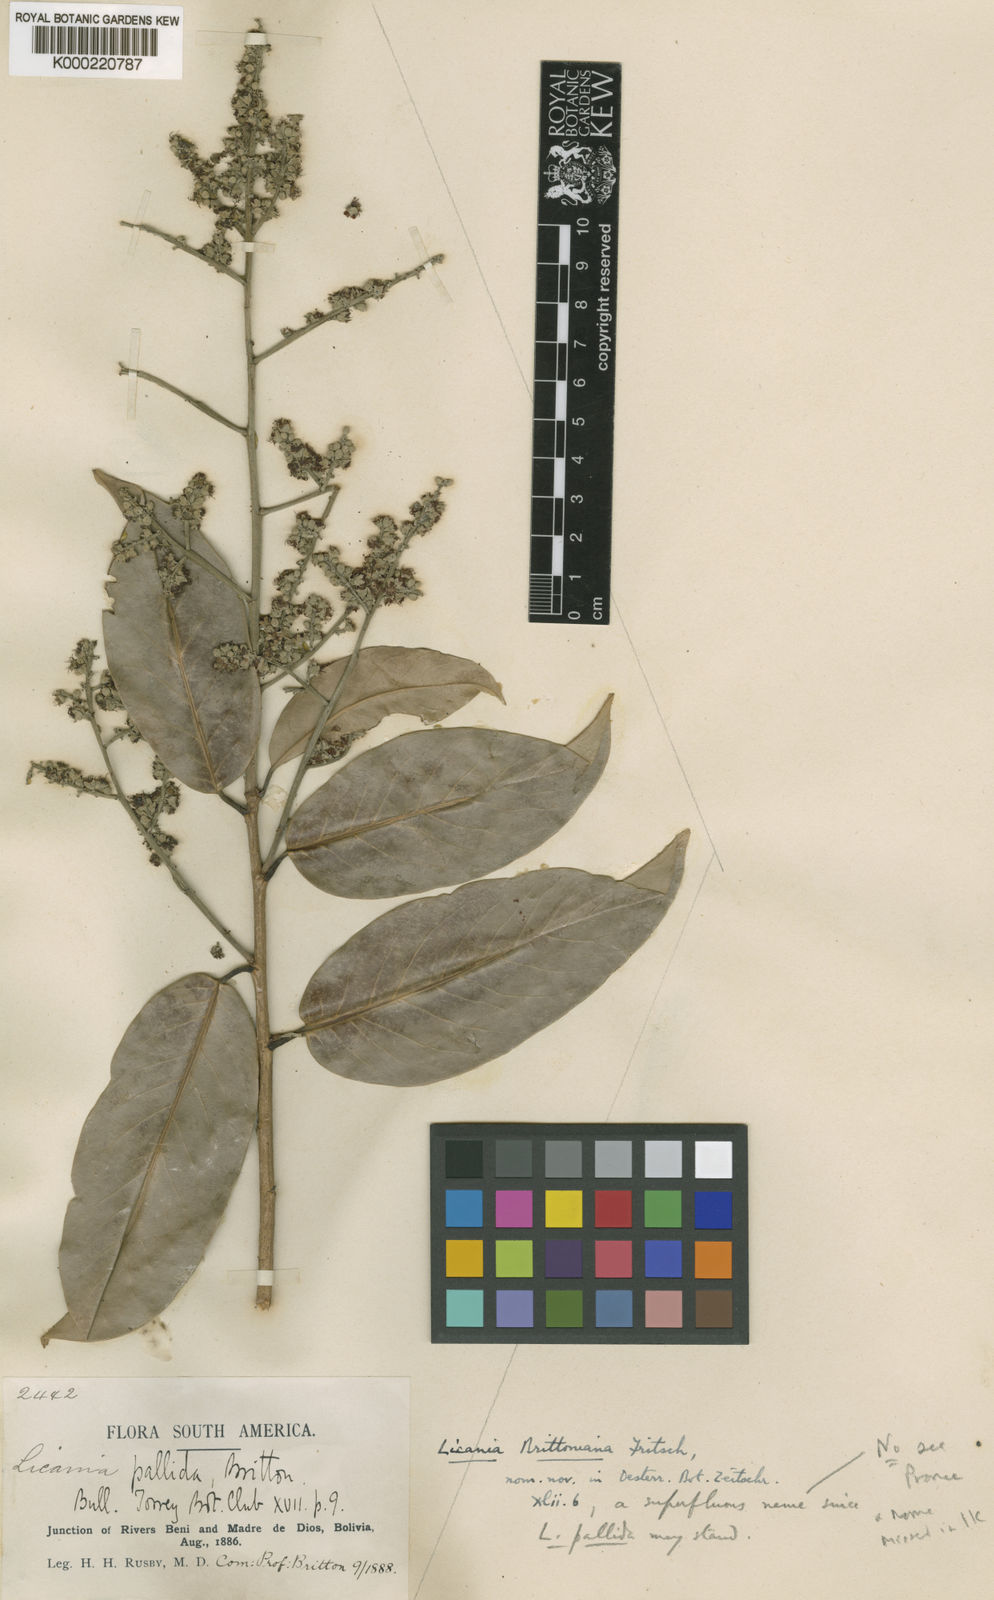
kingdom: Plantae
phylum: Tracheophyta
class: Magnoliopsida
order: Malpighiales
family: Chrysobalanaceae
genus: Moquilea
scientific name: Moquilea brittoniana
